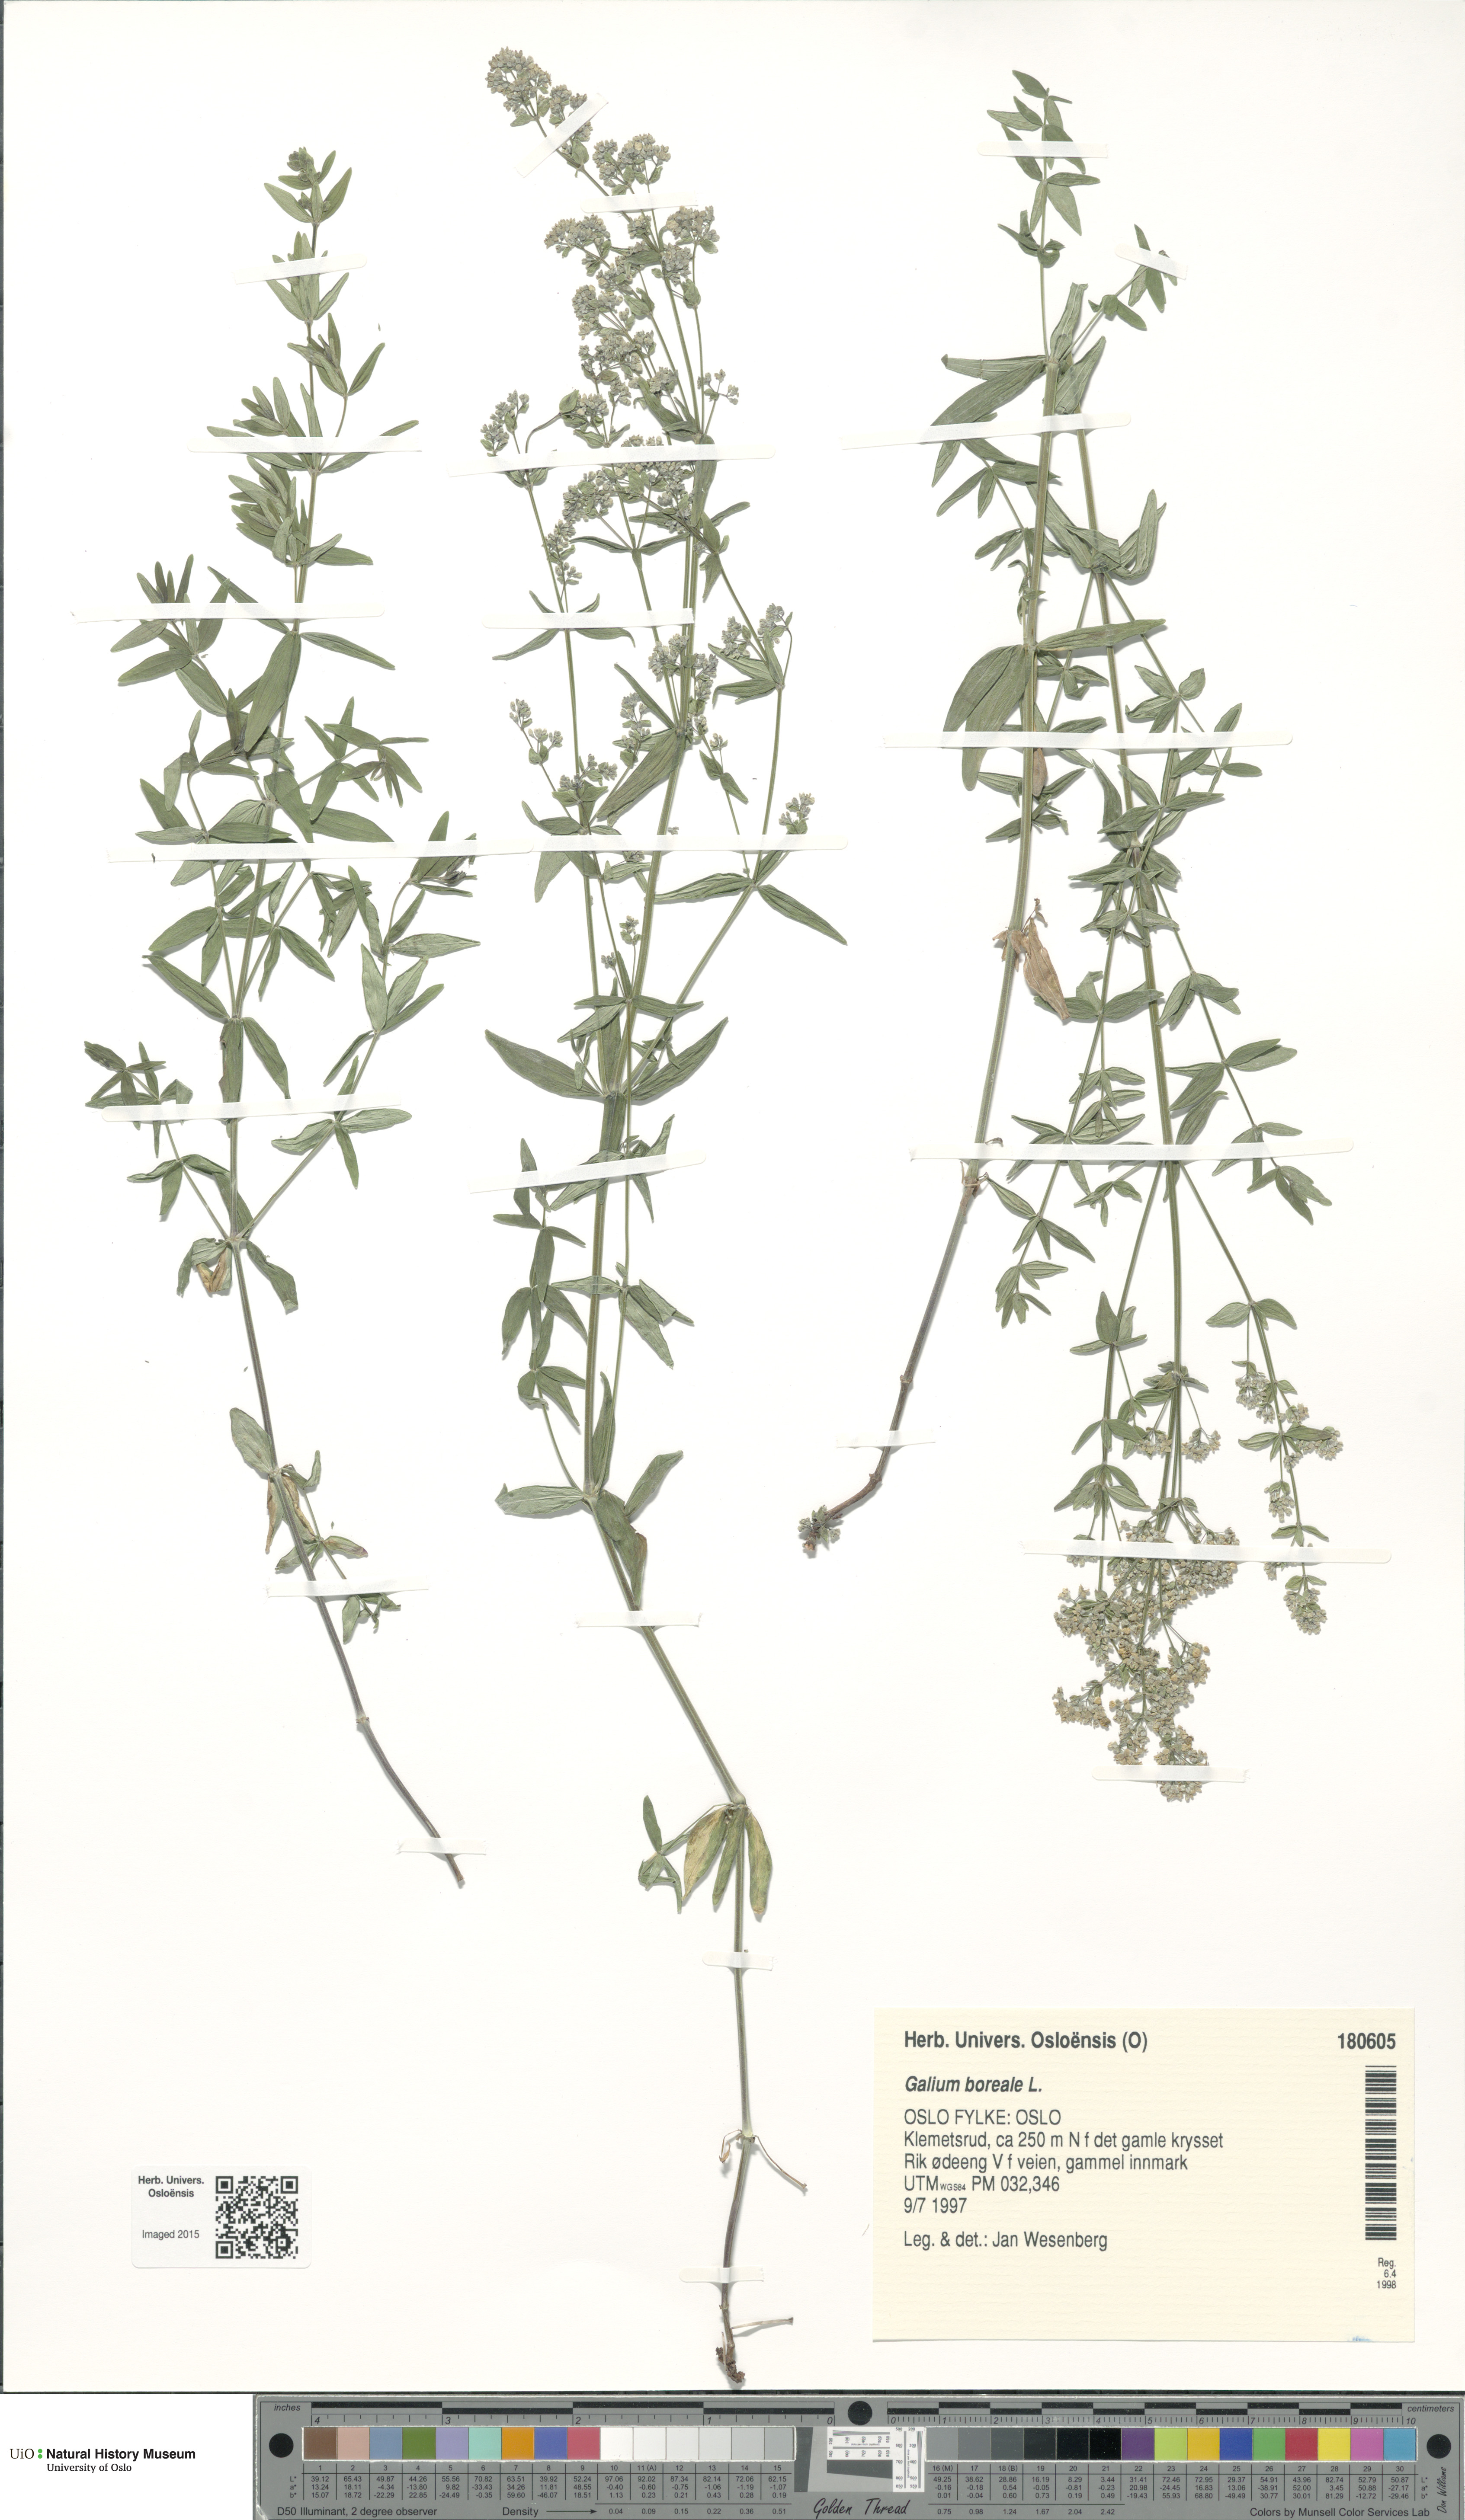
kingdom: Plantae
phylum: Tracheophyta
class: Magnoliopsida
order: Gentianales
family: Rubiaceae
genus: Galium
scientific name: Galium boreale
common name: Northern bedstraw
